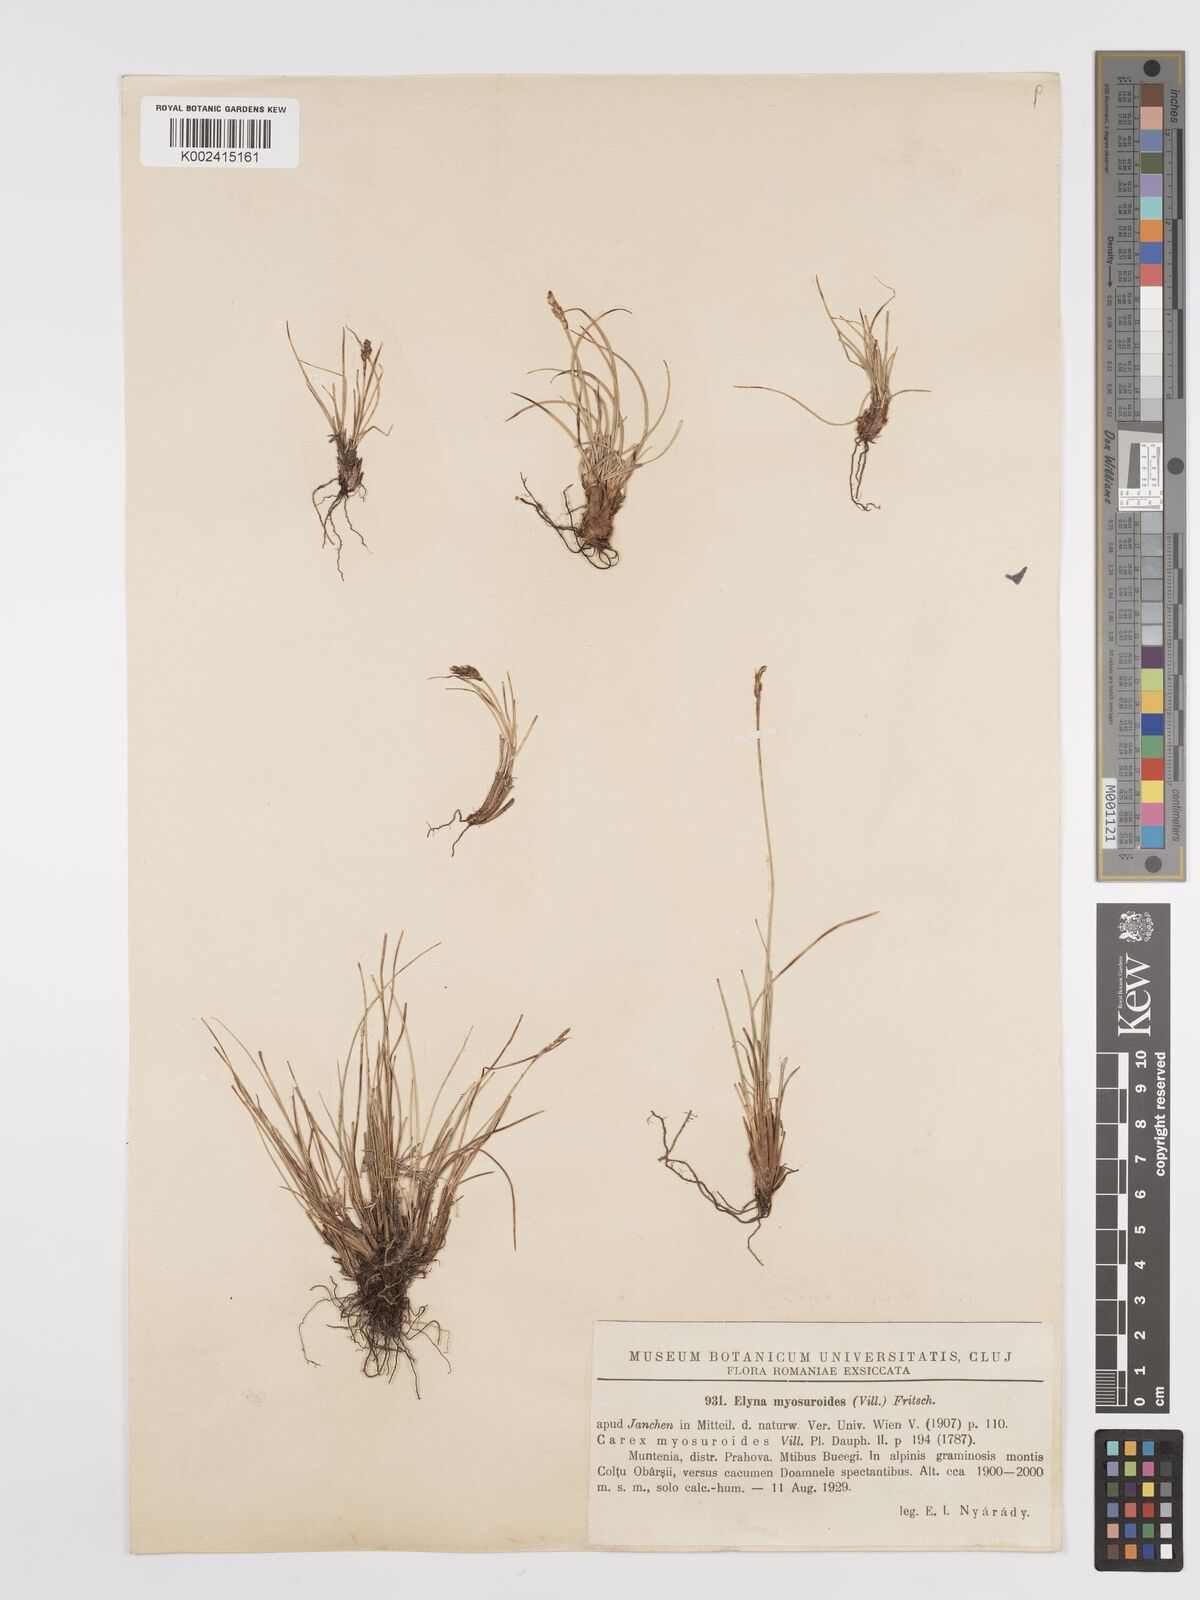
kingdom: Plantae
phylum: Tracheophyta
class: Liliopsida
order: Poales
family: Cyperaceae
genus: Carex
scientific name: Carex rupestris
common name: Rock sedge
